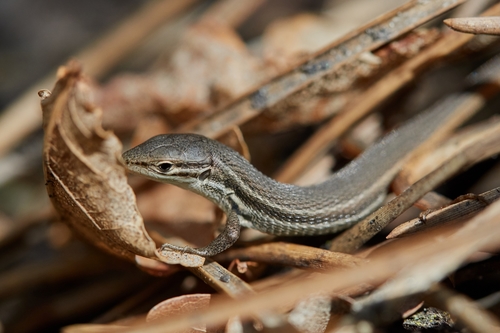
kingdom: Animalia
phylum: Chordata
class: Squamata
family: Lacertidae
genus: Psammodromus
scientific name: Psammodromus algirus
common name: Algerian psammodromus
